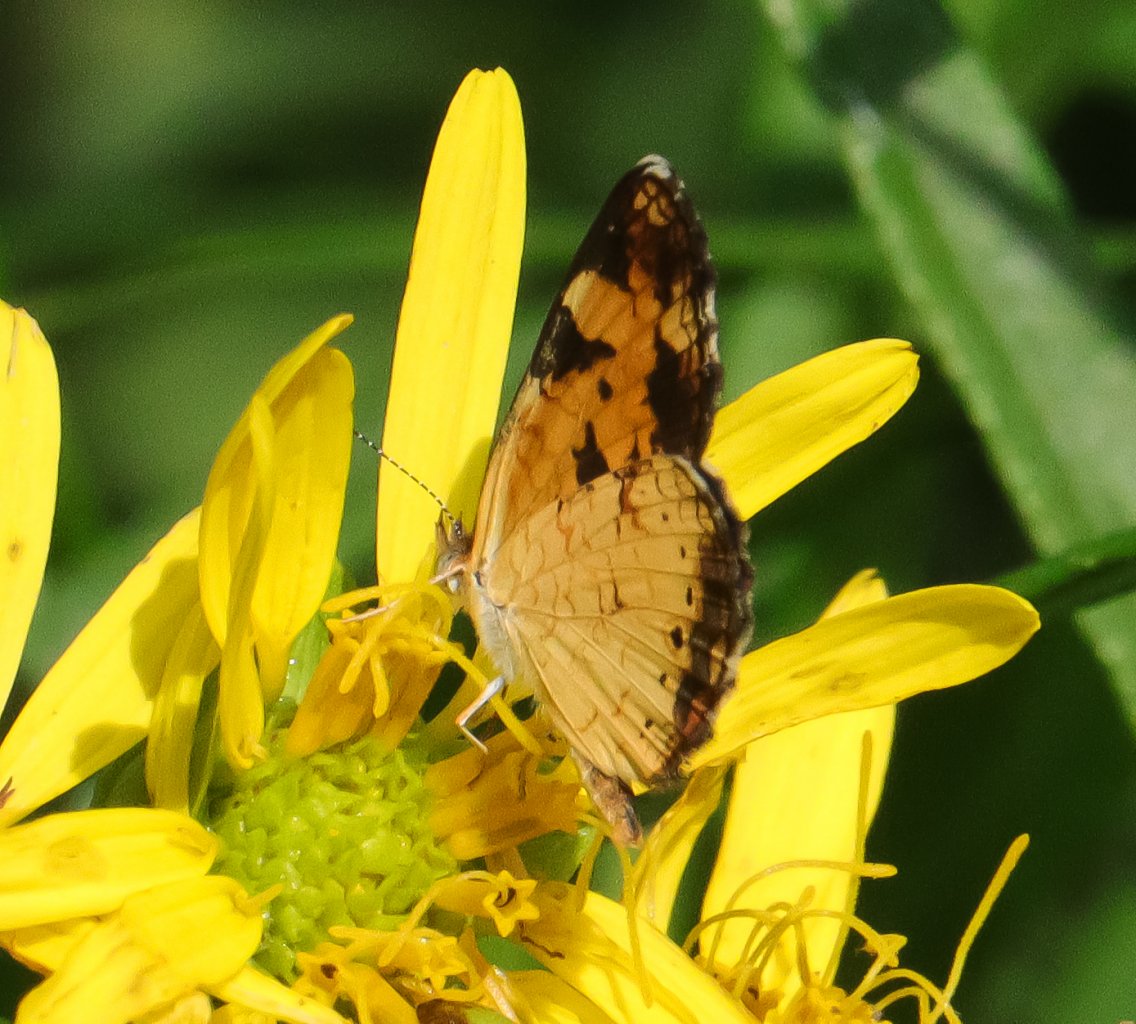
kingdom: Animalia
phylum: Arthropoda
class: Insecta
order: Lepidoptera
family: Nymphalidae
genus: Phyciodes
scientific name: Phyciodes tharos
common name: Pearl Crescent
